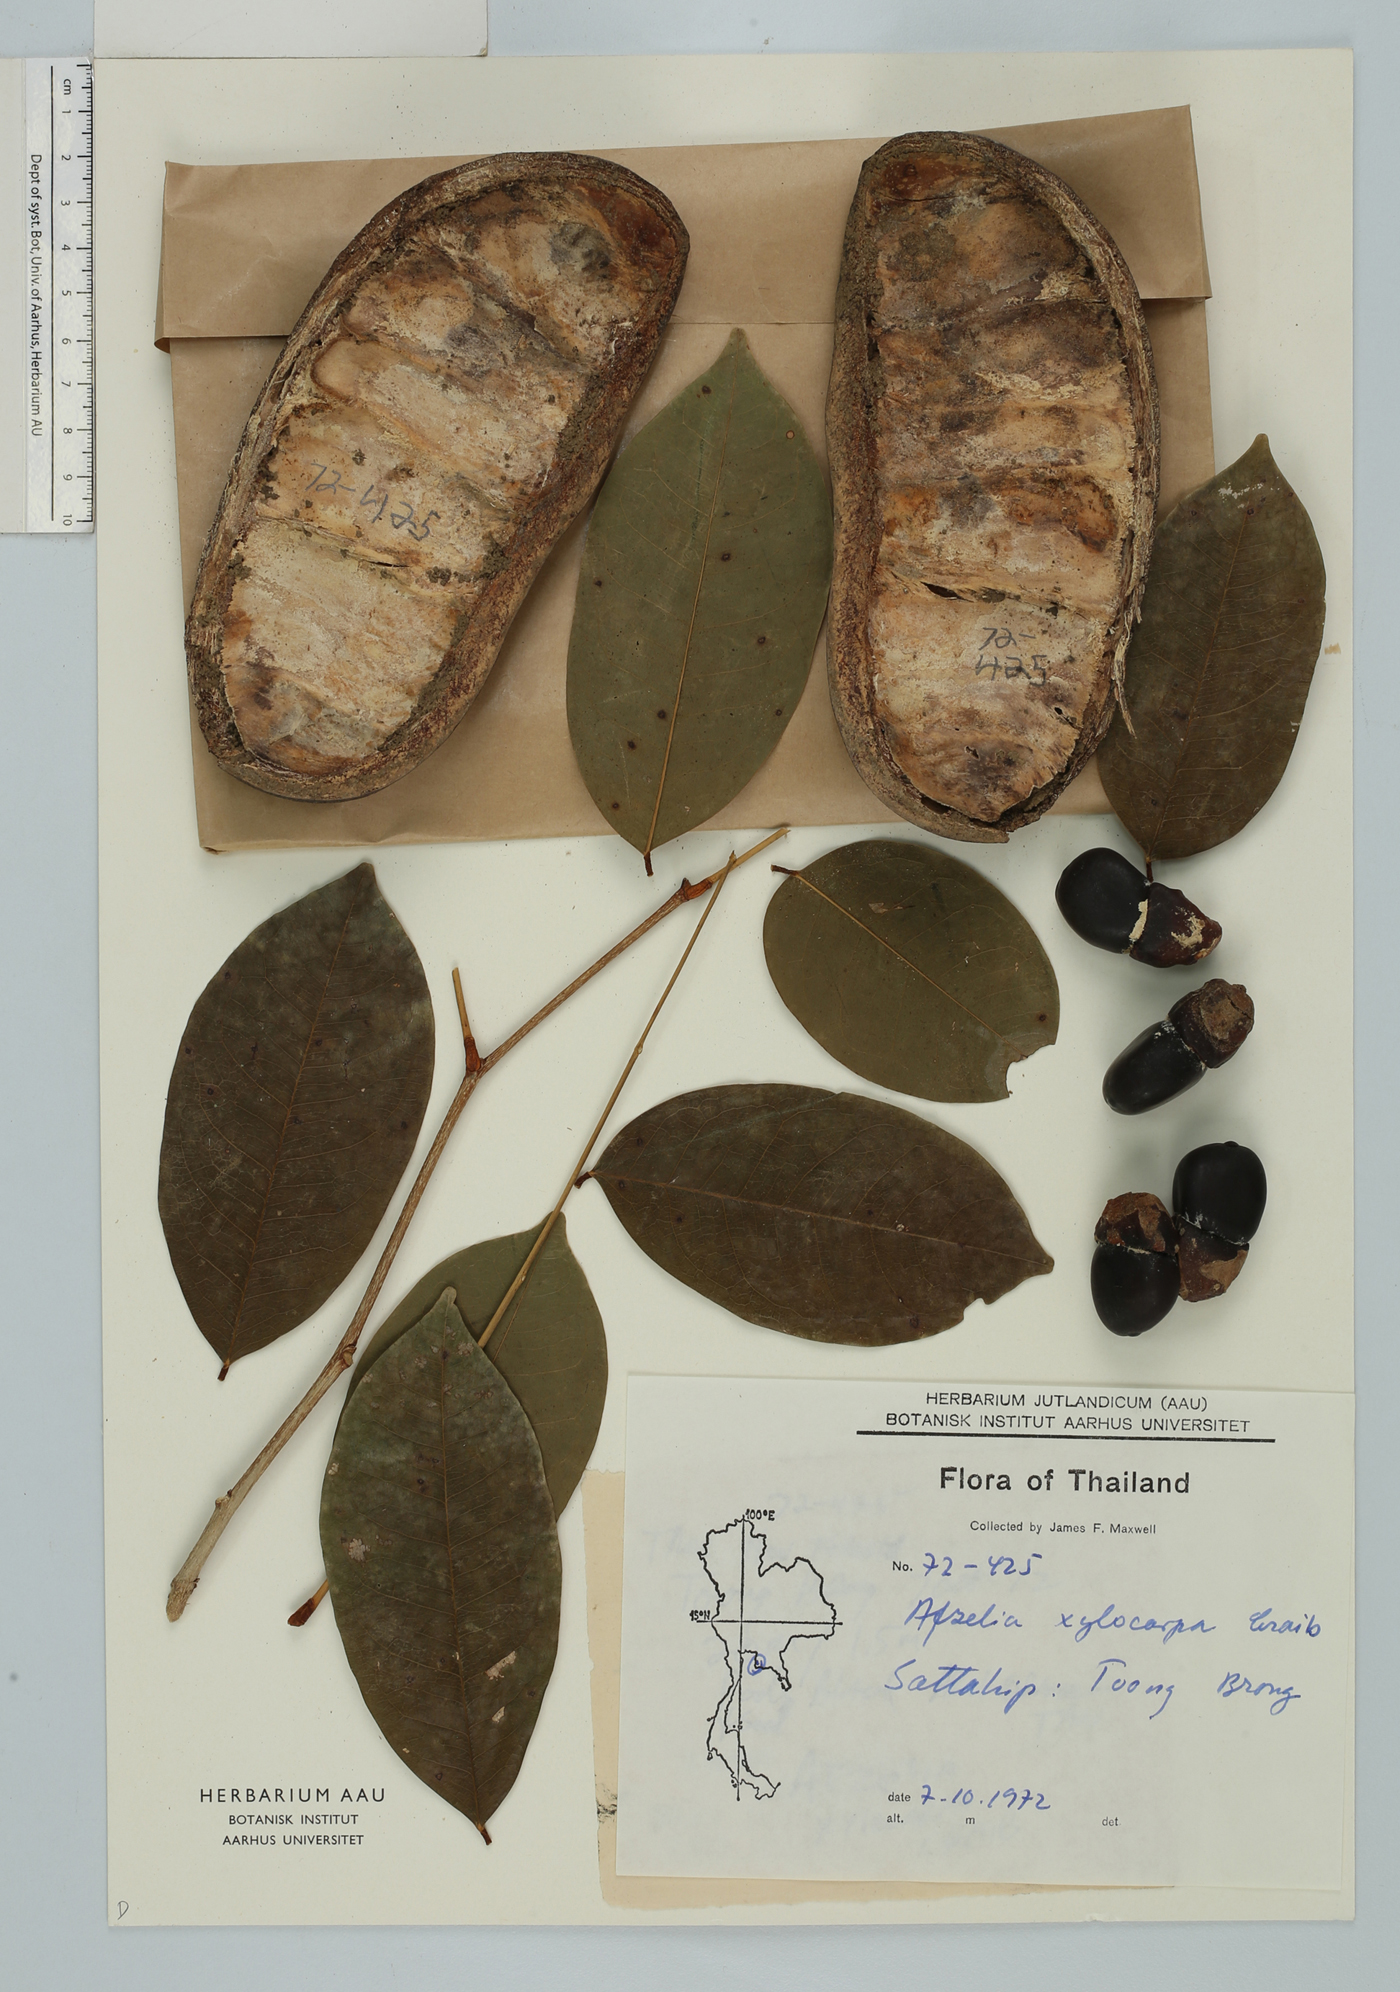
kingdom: Plantae
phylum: Tracheophyta
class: Magnoliopsida
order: Fabales
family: Fabaceae
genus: Afzelia
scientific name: Afzelia xylocarpa
